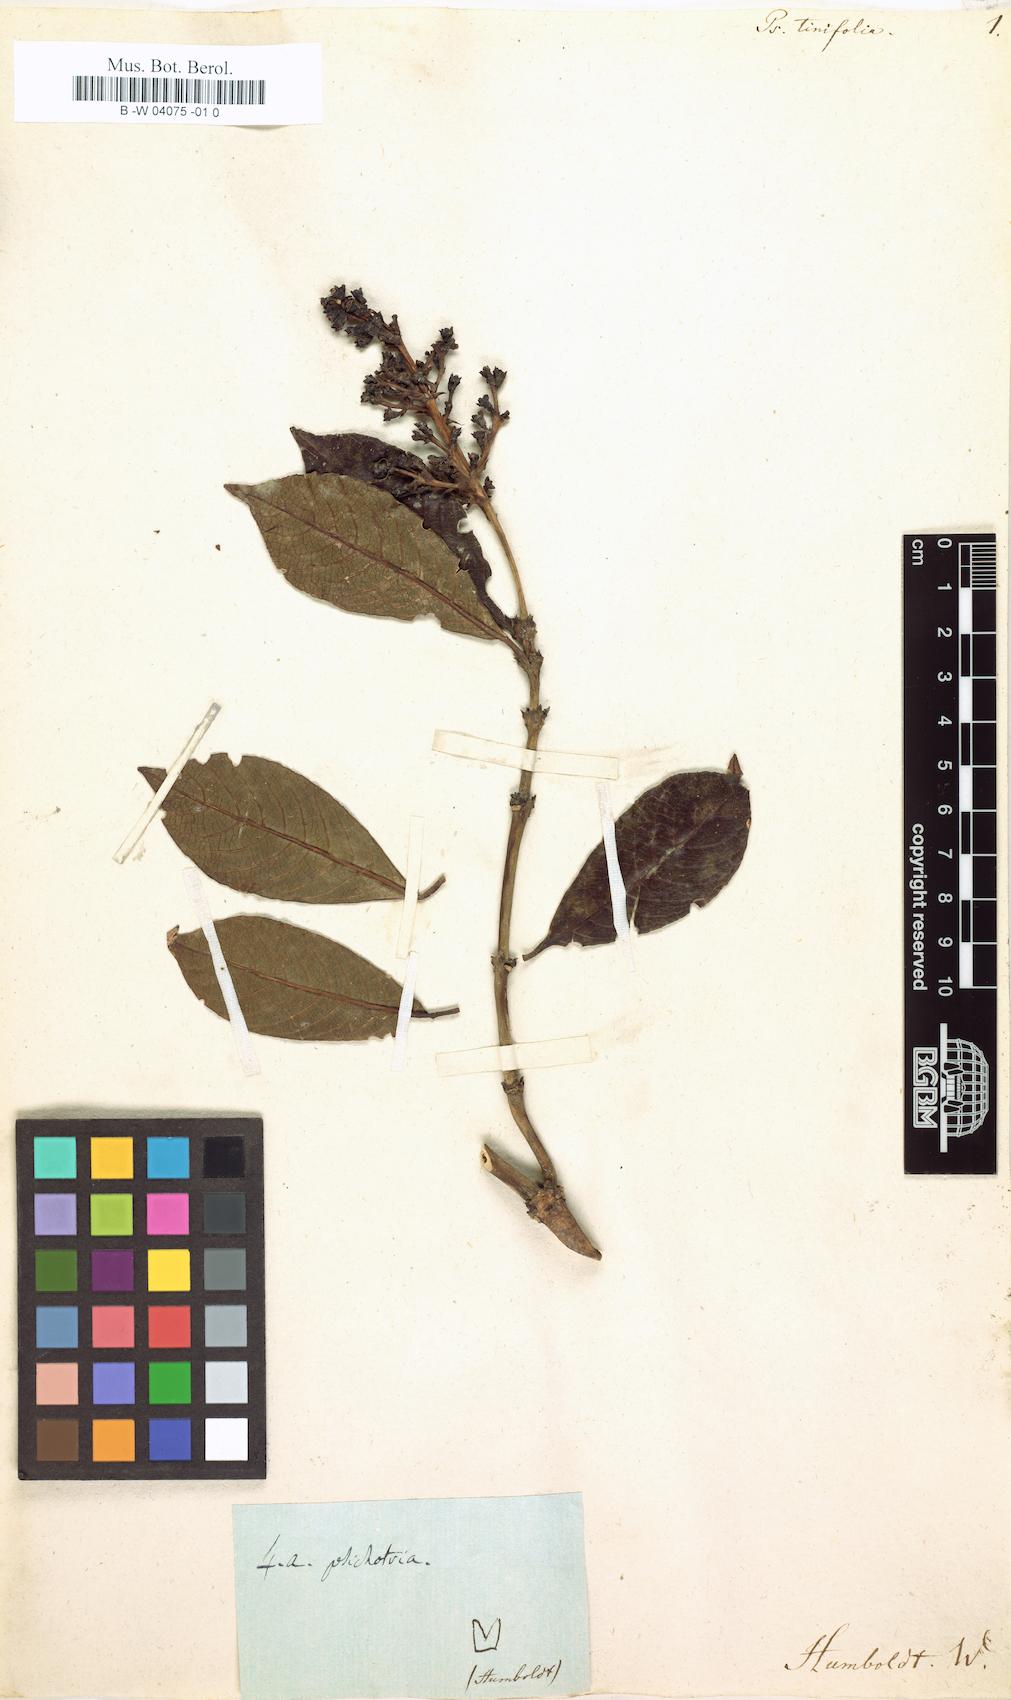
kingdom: Plantae
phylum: Tracheophyta
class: Magnoliopsida
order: Gentianales
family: Rubiaceae
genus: Palicourea
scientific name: Palicourea apicata
